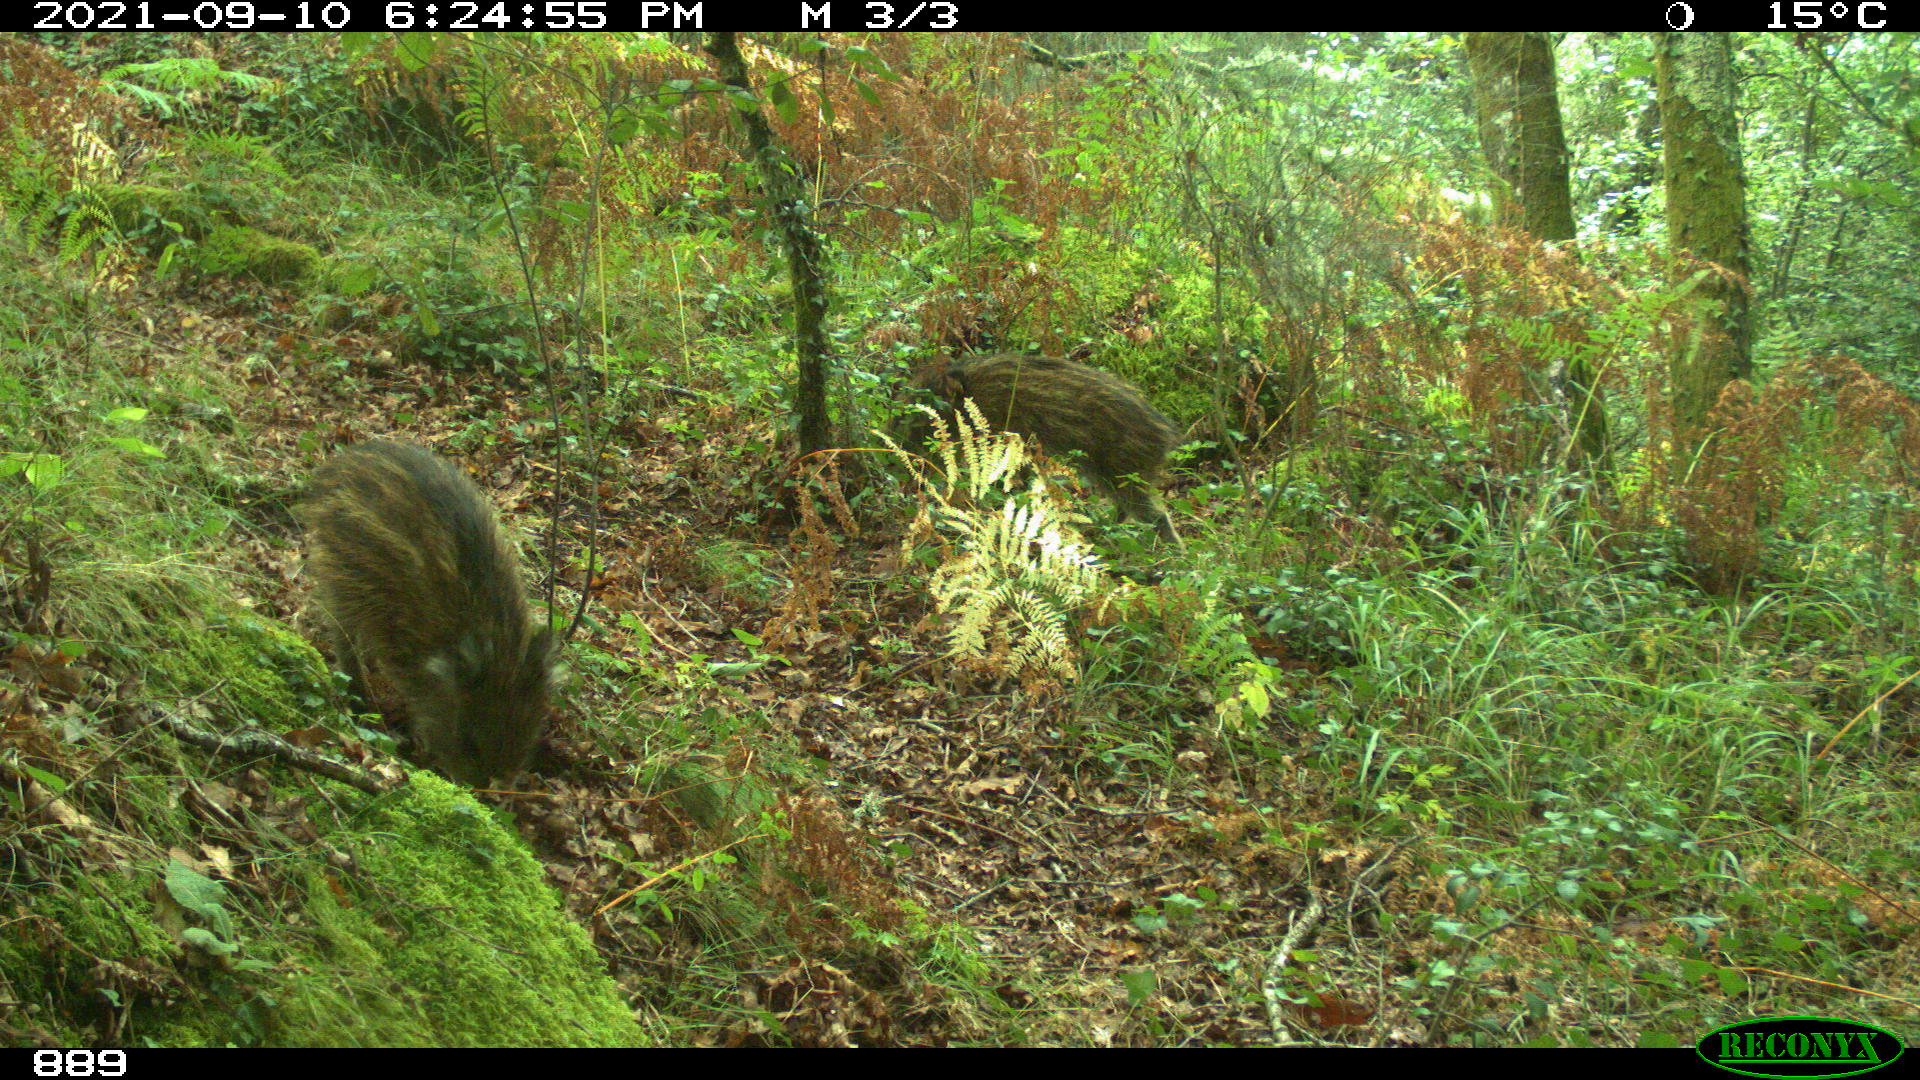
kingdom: Animalia
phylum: Chordata
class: Mammalia
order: Artiodactyla
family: Suidae
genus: Sus
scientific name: Sus scrofa
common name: Wild boar
